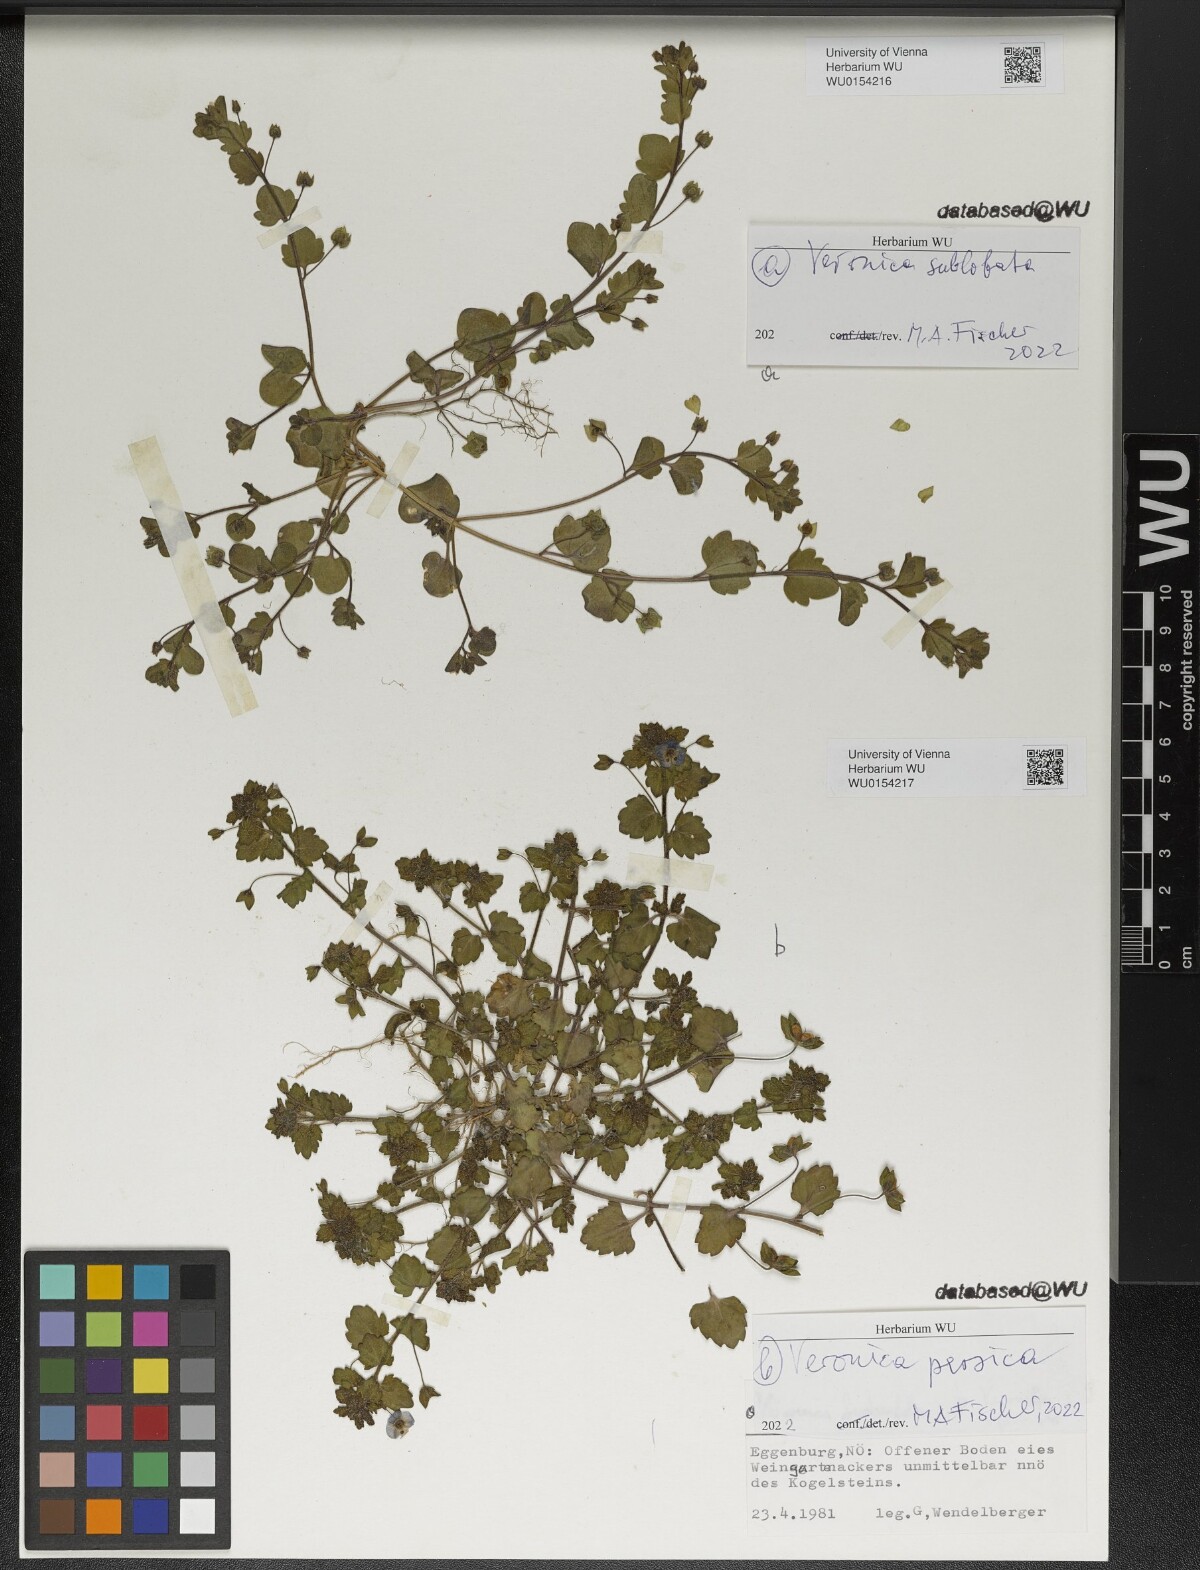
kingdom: Plantae
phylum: Tracheophyta
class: Magnoliopsida
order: Lamiales
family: Plantaginaceae
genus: Veronica
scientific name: Veronica persica
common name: Common field-speedwell
